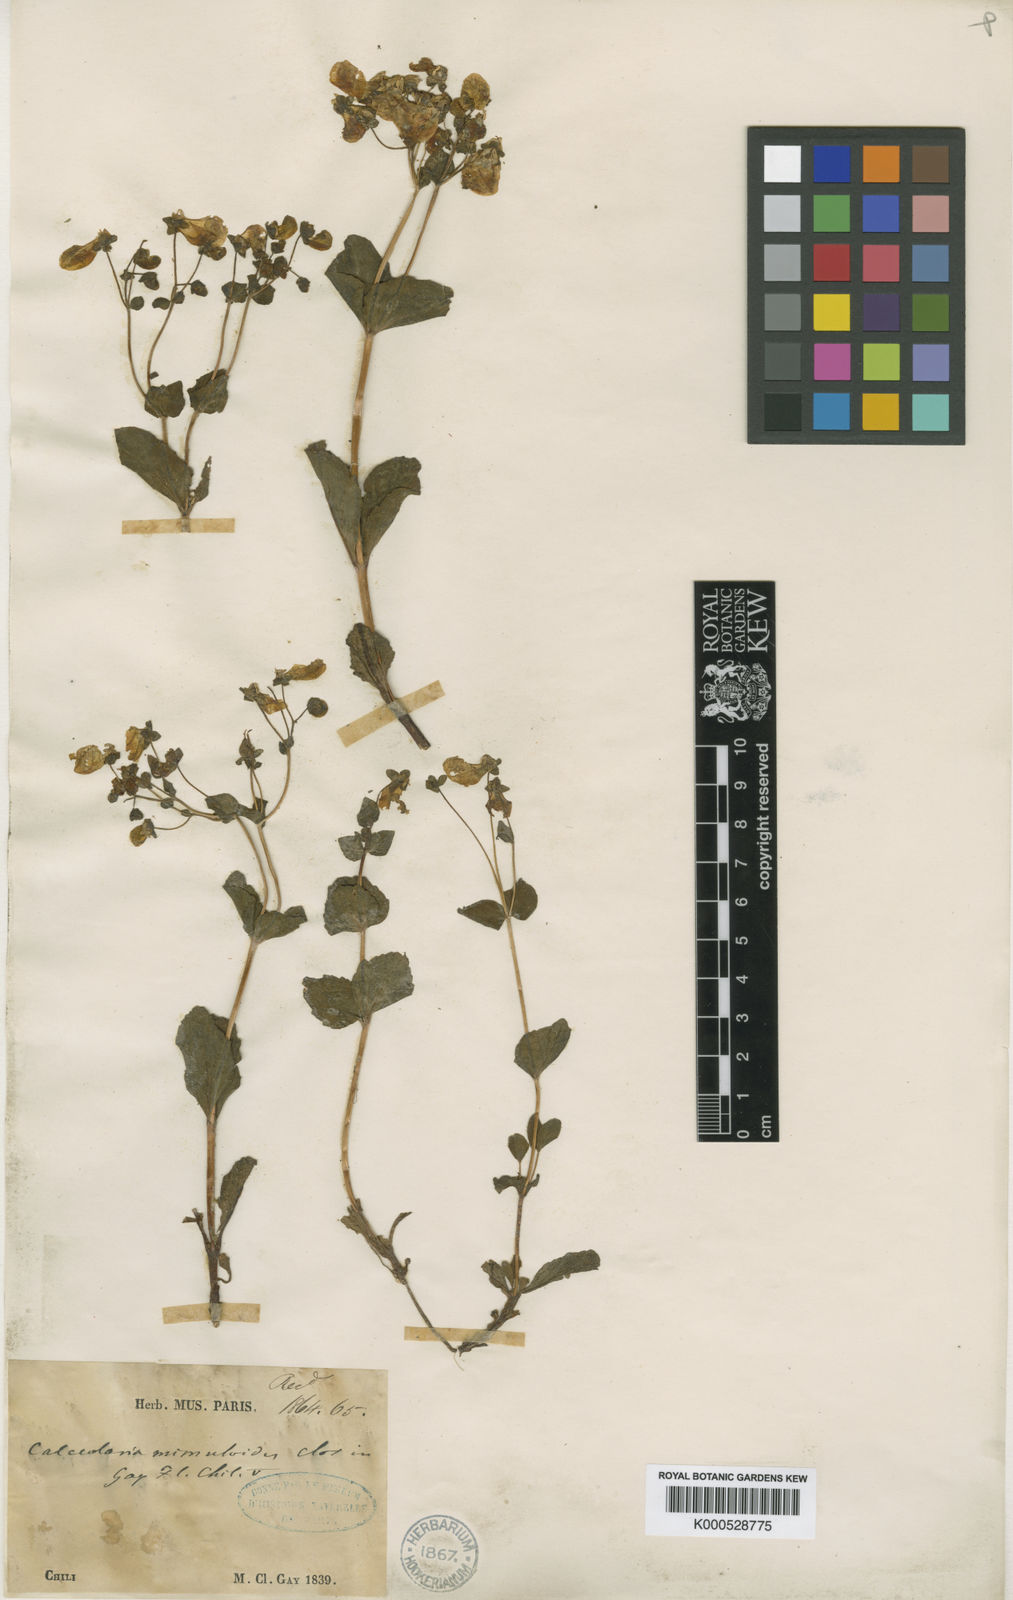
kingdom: Plantae
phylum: Tracheophyta
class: Magnoliopsida
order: Lamiales
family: Calceolariaceae
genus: Calceolaria
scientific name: Calceolaria corymbosa
